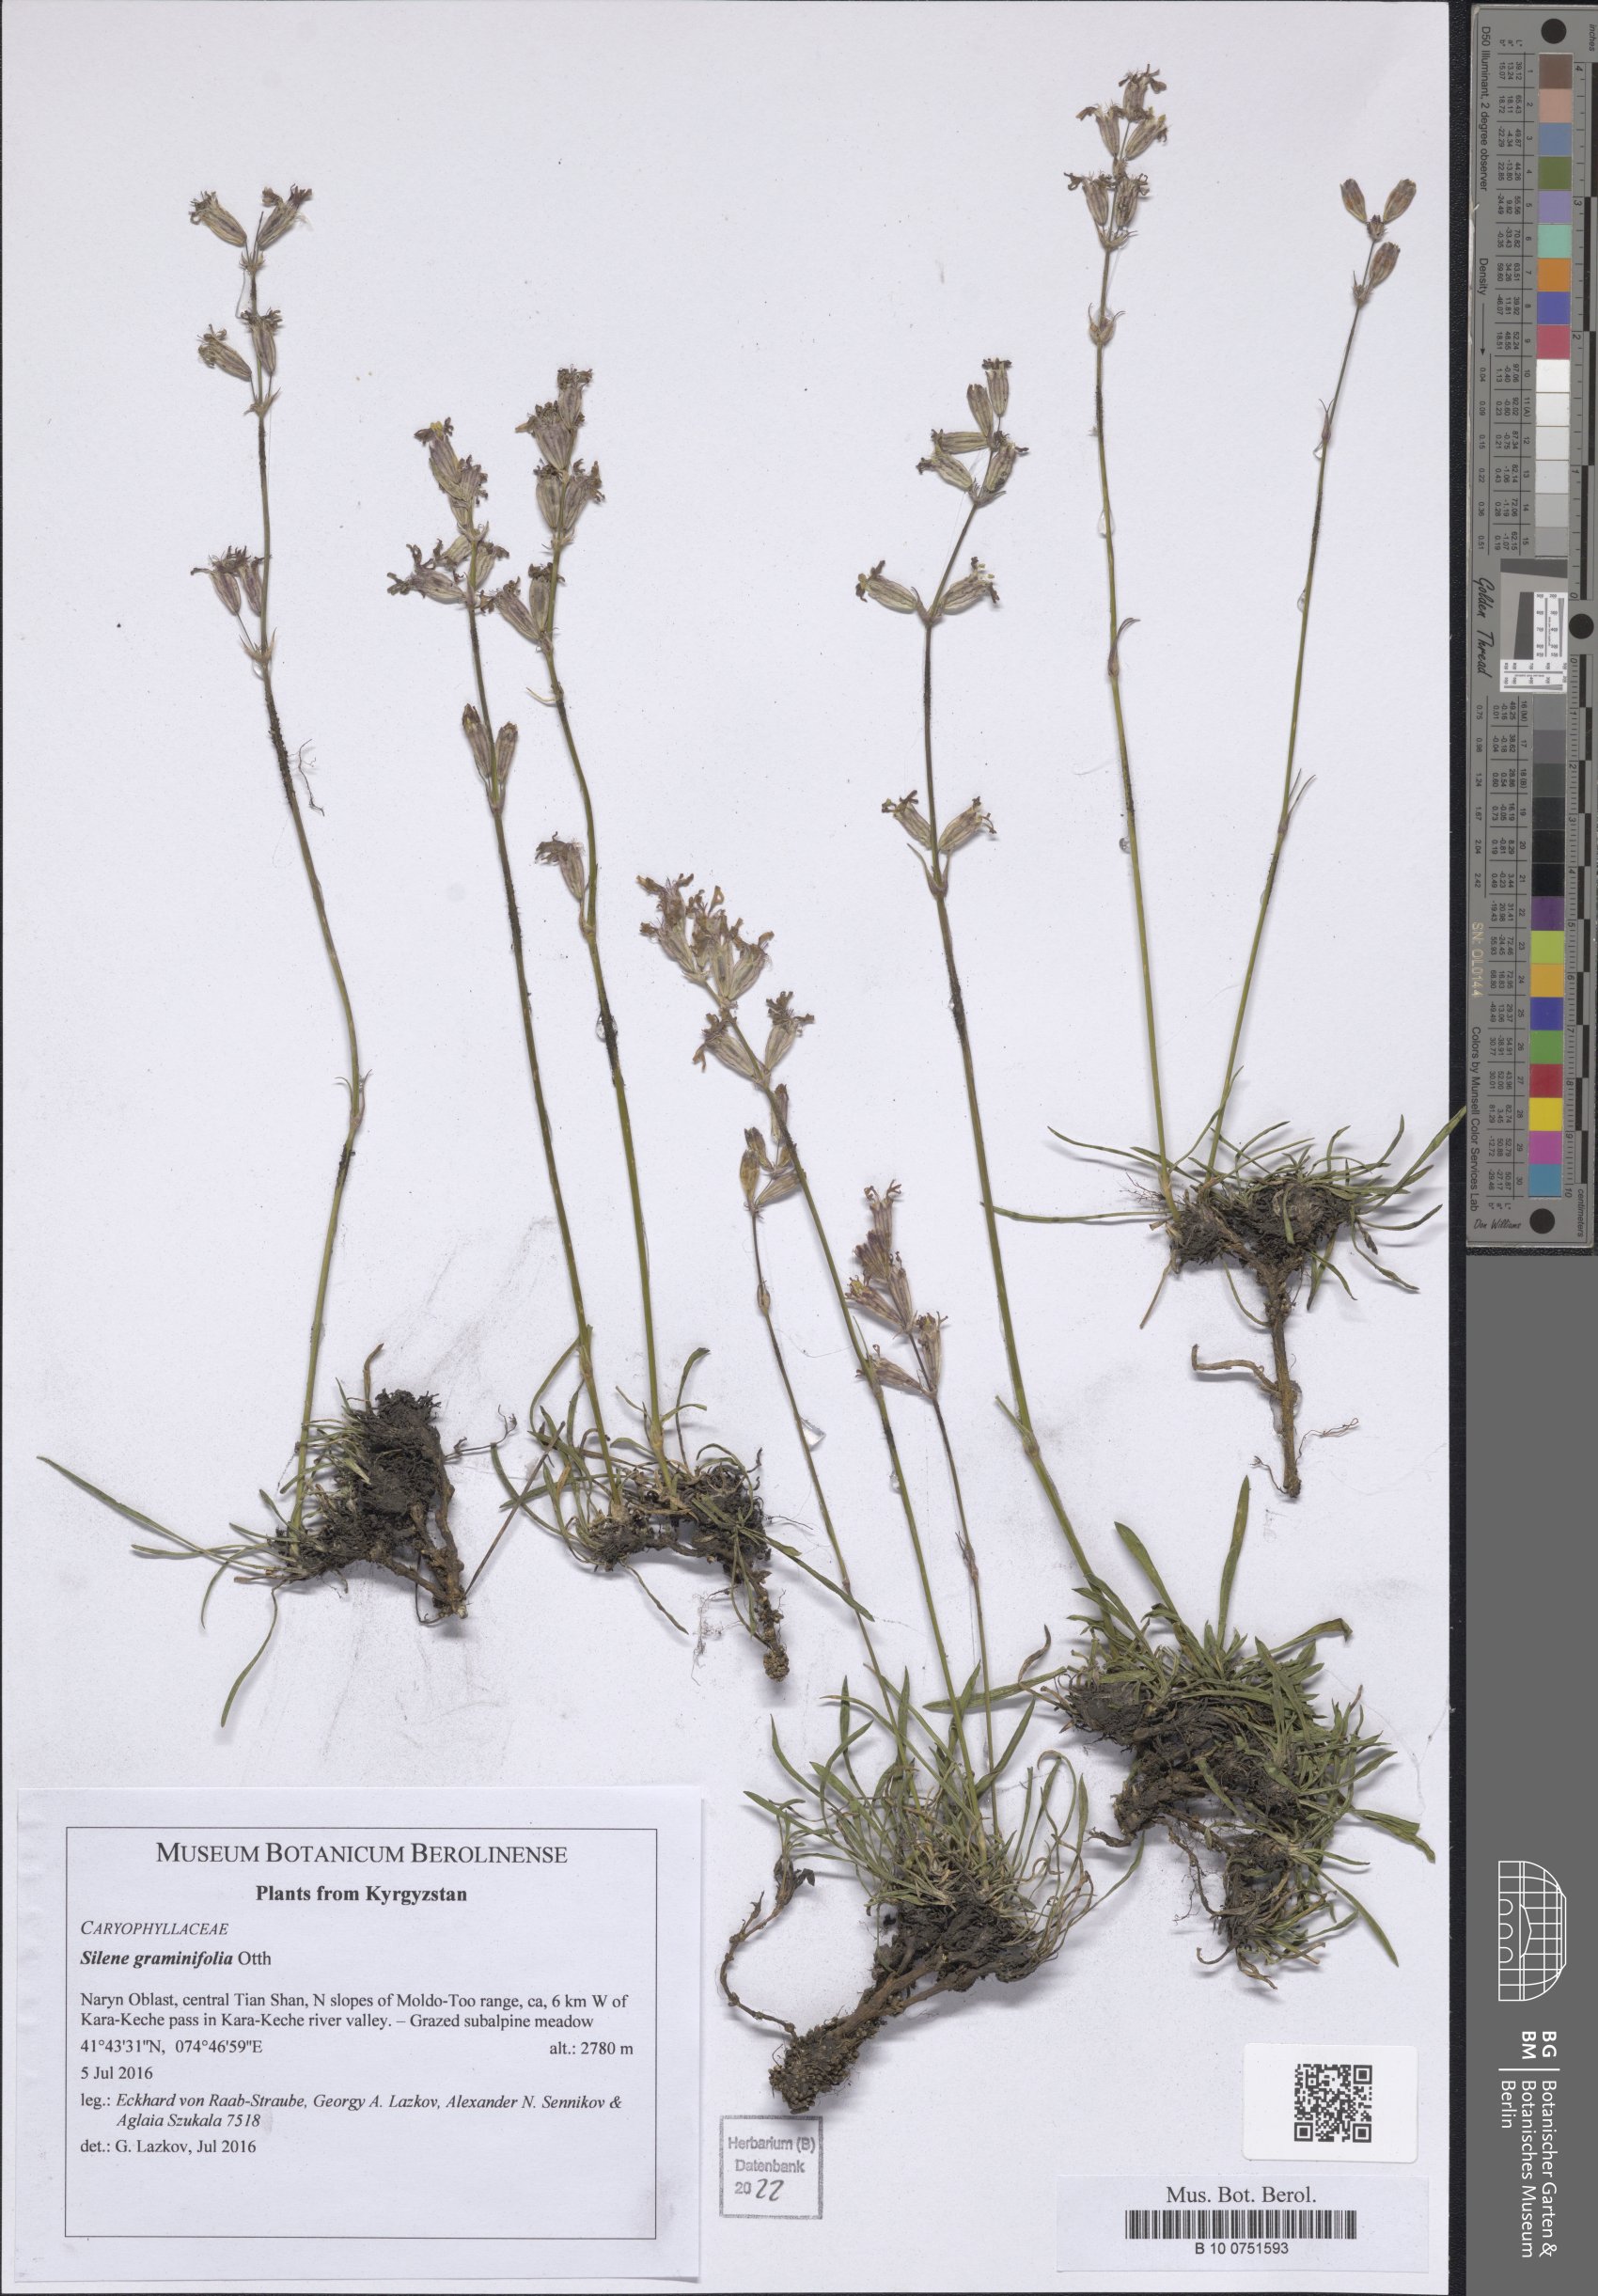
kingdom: Plantae
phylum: Tracheophyta
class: Magnoliopsida
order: Caryophyllales
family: Caryophyllaceae
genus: Silene
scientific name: Silene graminifolia
